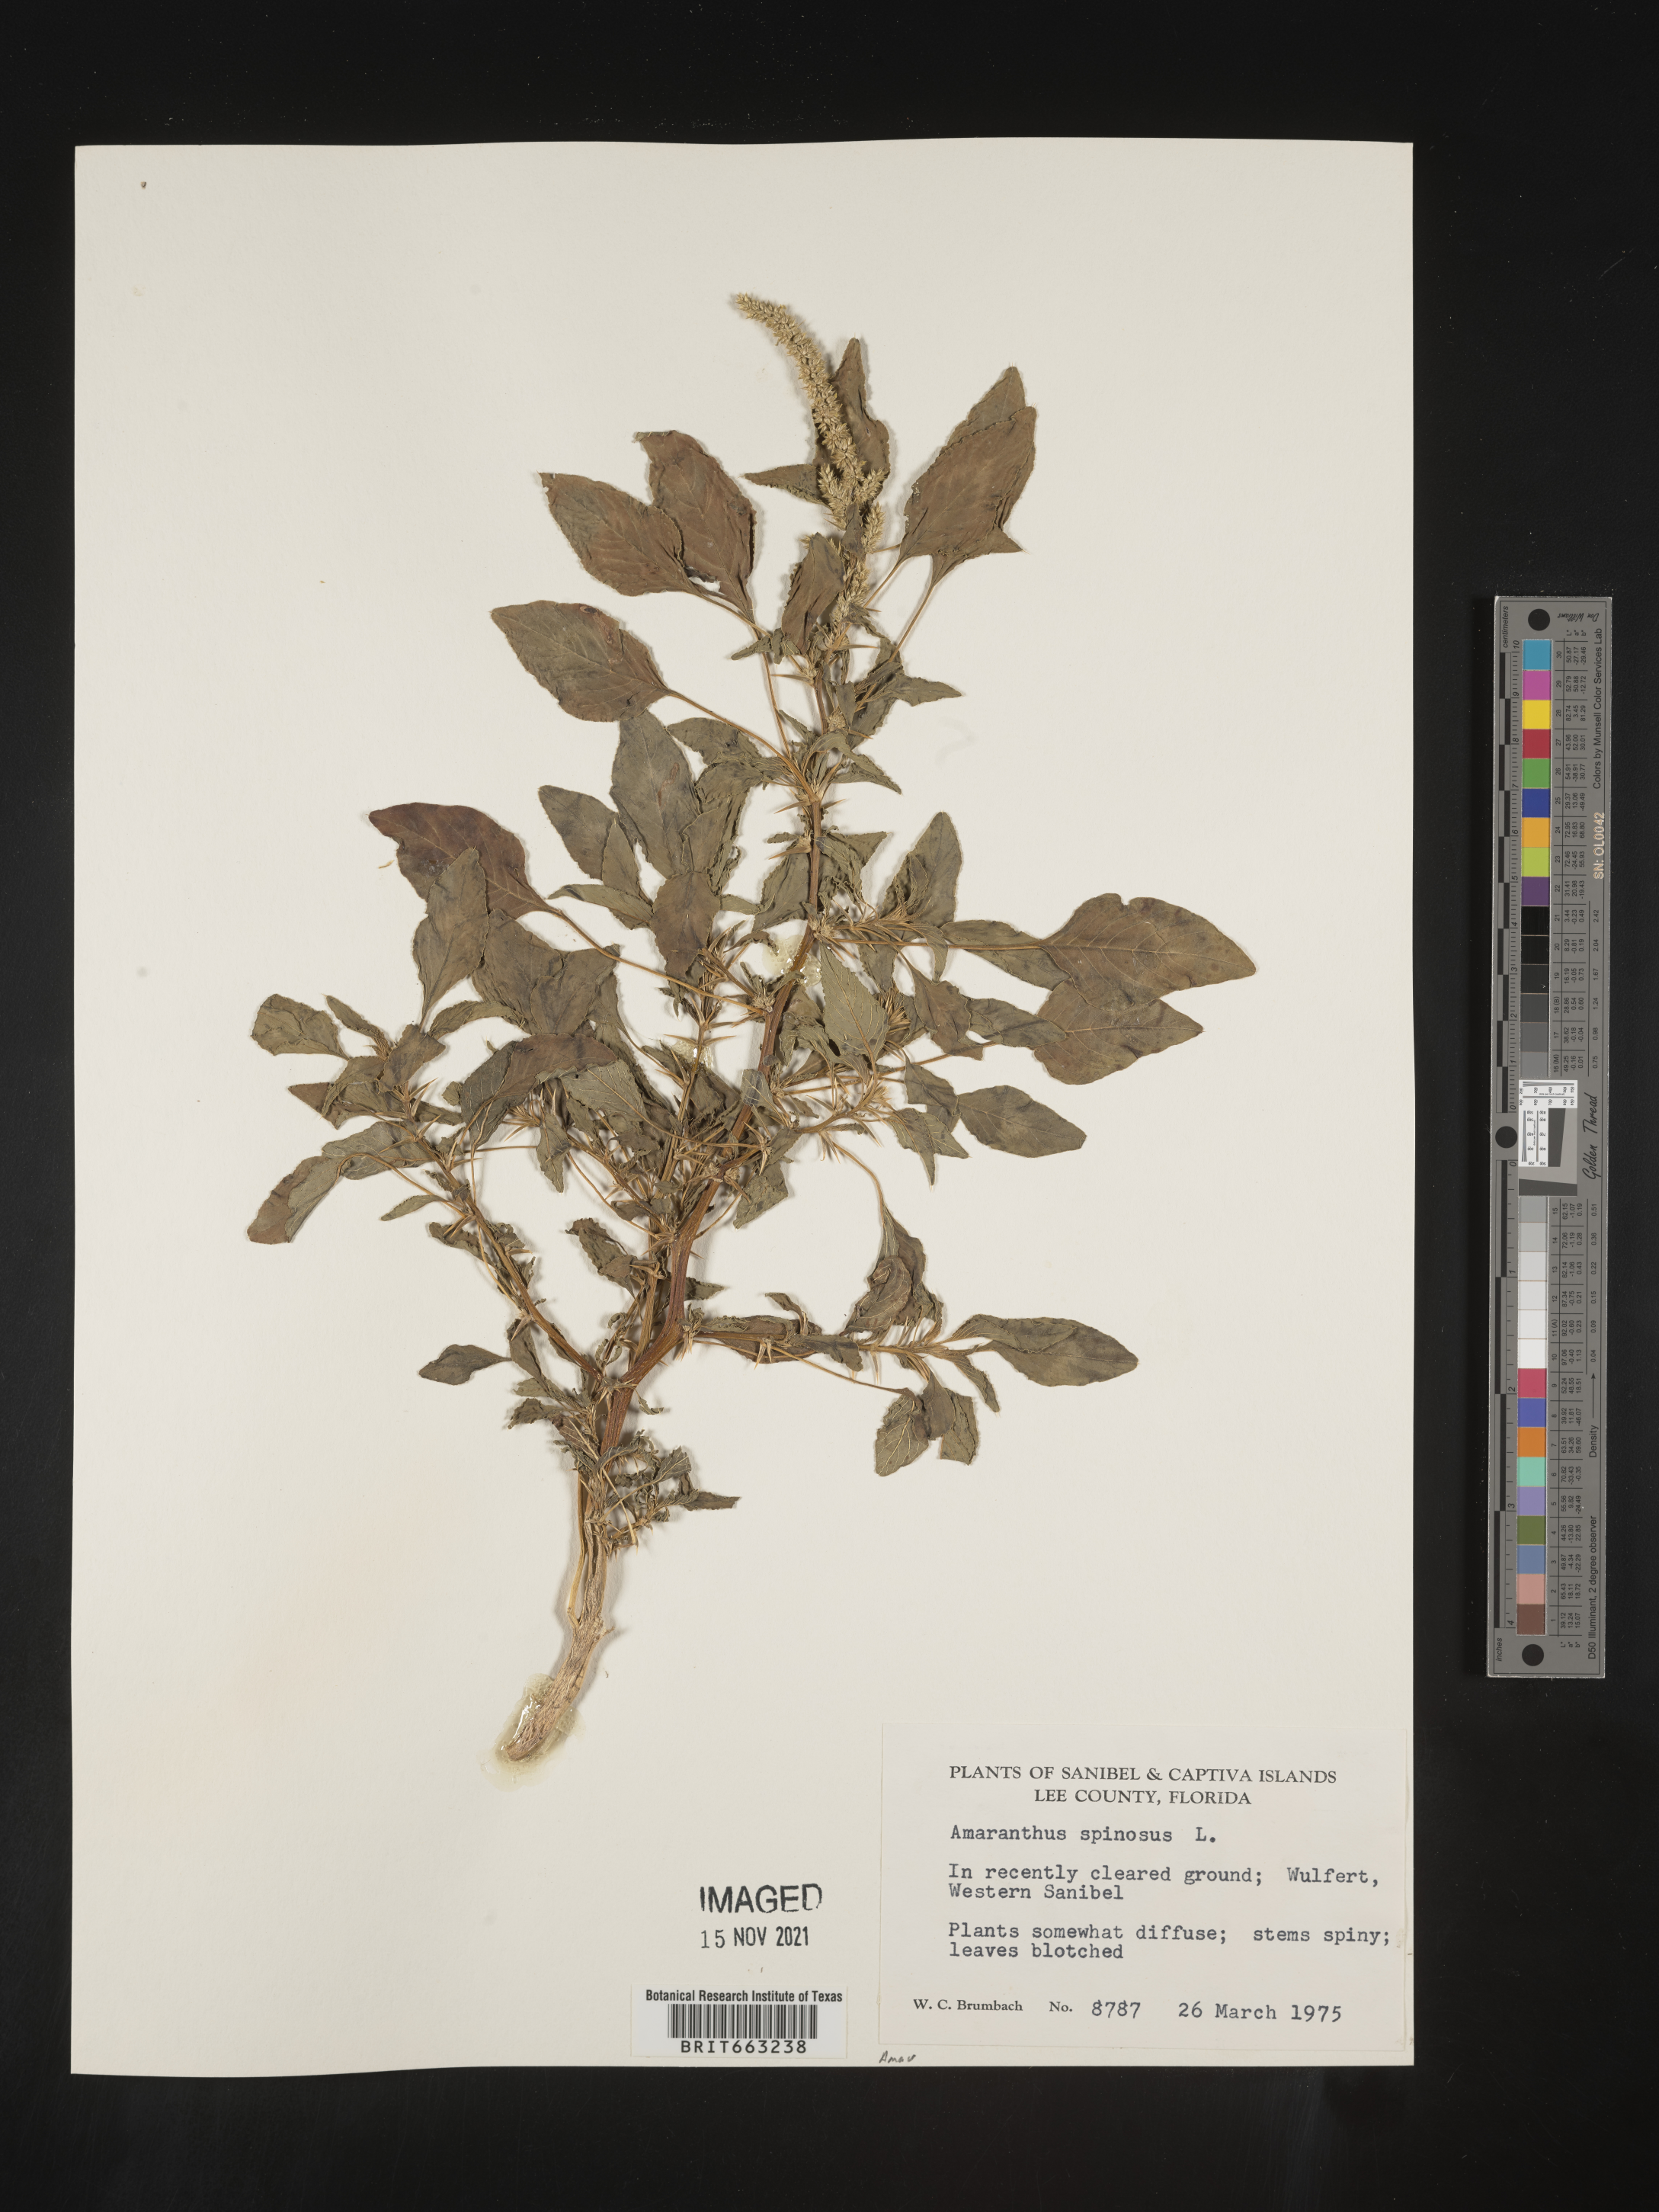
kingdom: Plantae
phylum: Tracheophyta
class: Magnoliopsida
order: Caryophyllales
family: Amaranthaceae
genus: Amaranthus
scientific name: Amaranthus spinosus
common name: Spiny amaranth
